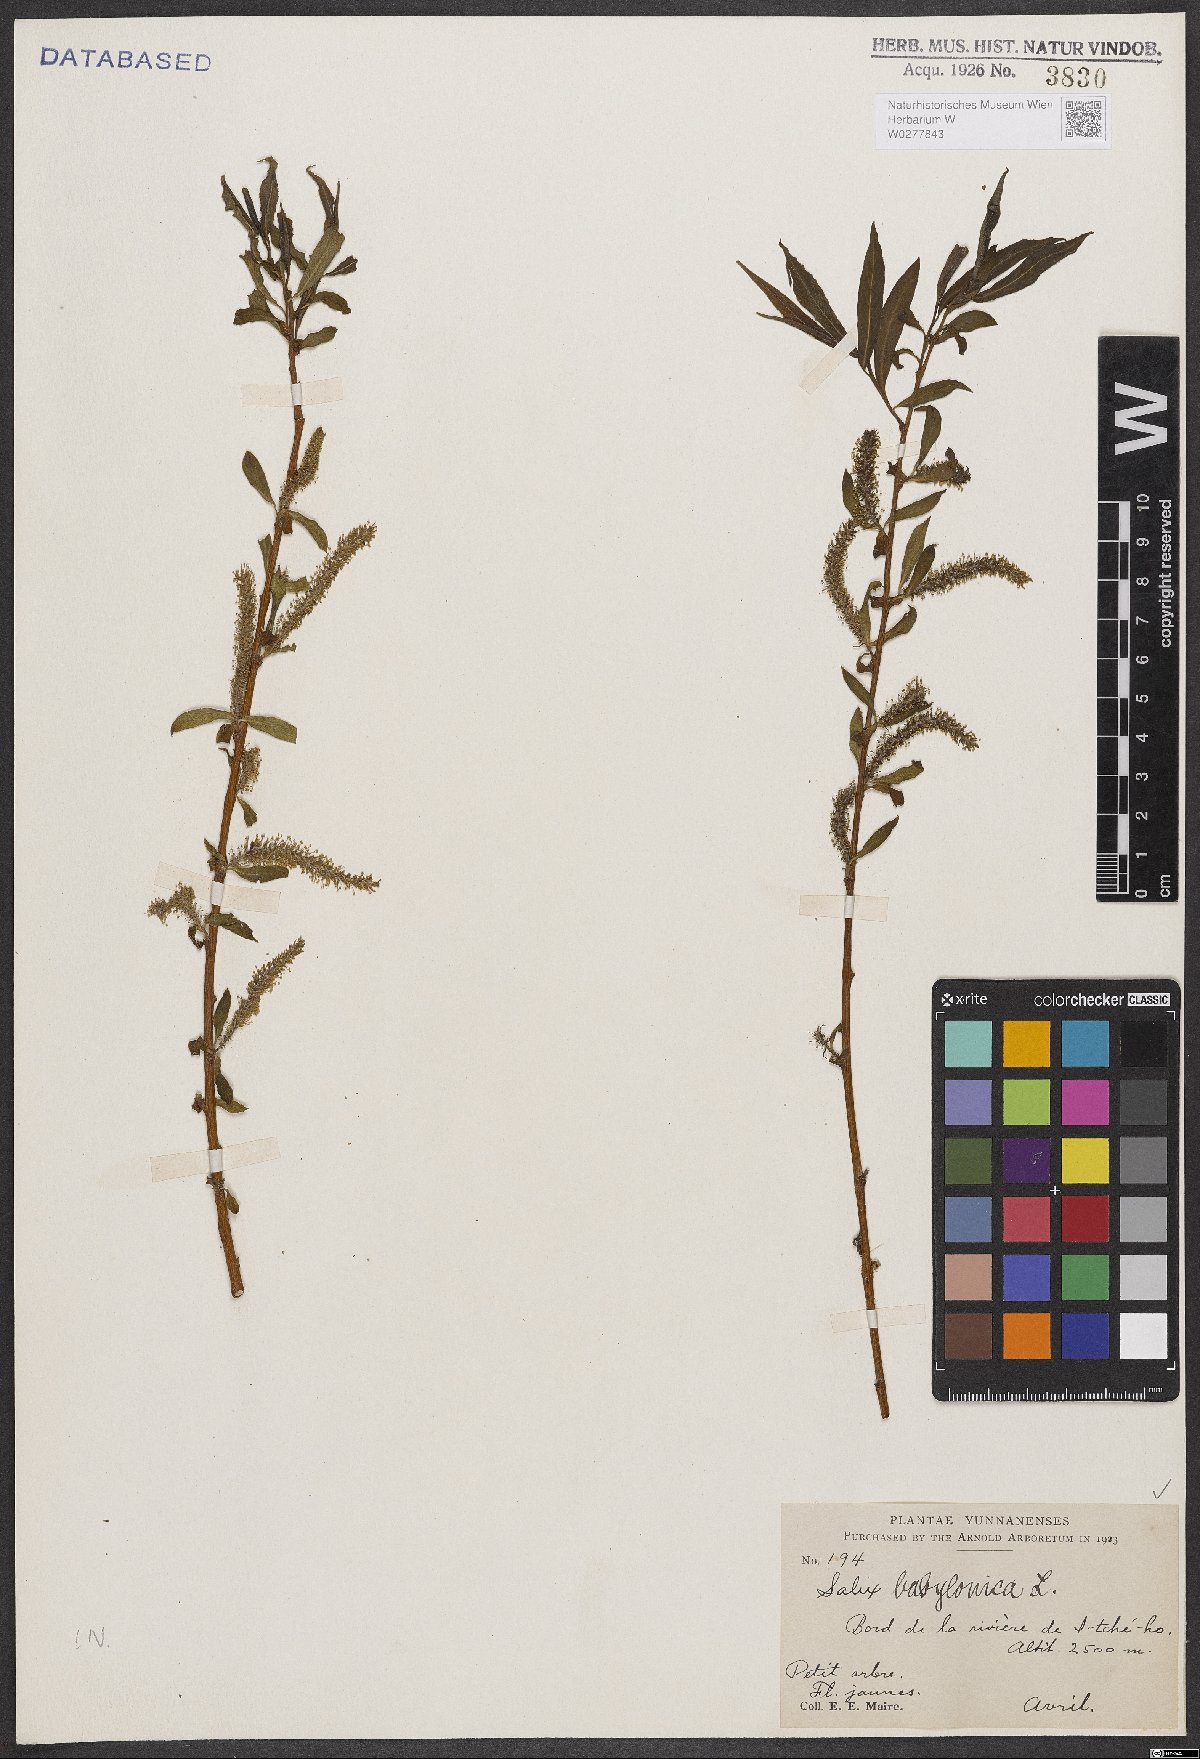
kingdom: Plantae
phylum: Tracheophyta
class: Magnoliopsida
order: Malpighiales
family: Salicaceae
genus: Salix
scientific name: Salix babylonica
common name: Weeping willow
